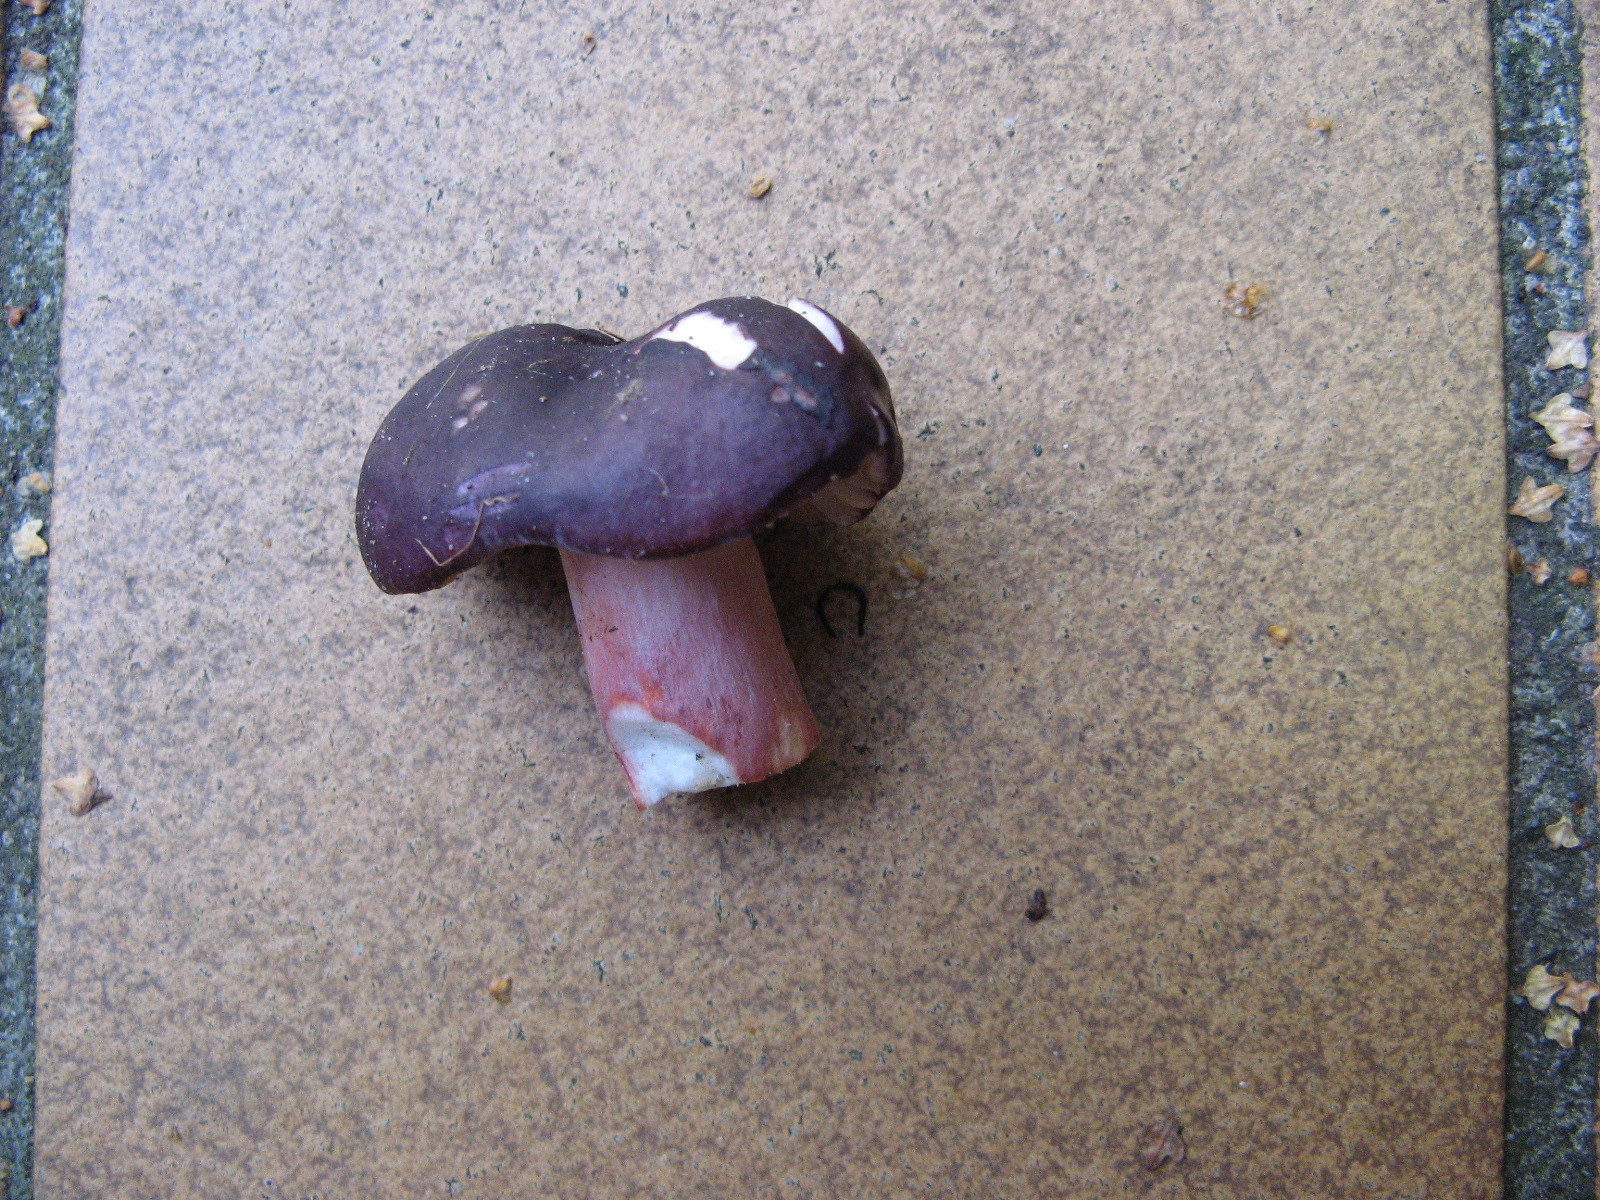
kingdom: Fungi
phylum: Basidiomycota
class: Agaricomycetes
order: Russulales
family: Russulaceae
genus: Russula
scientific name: Russula queletii
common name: Quélets skørhat
